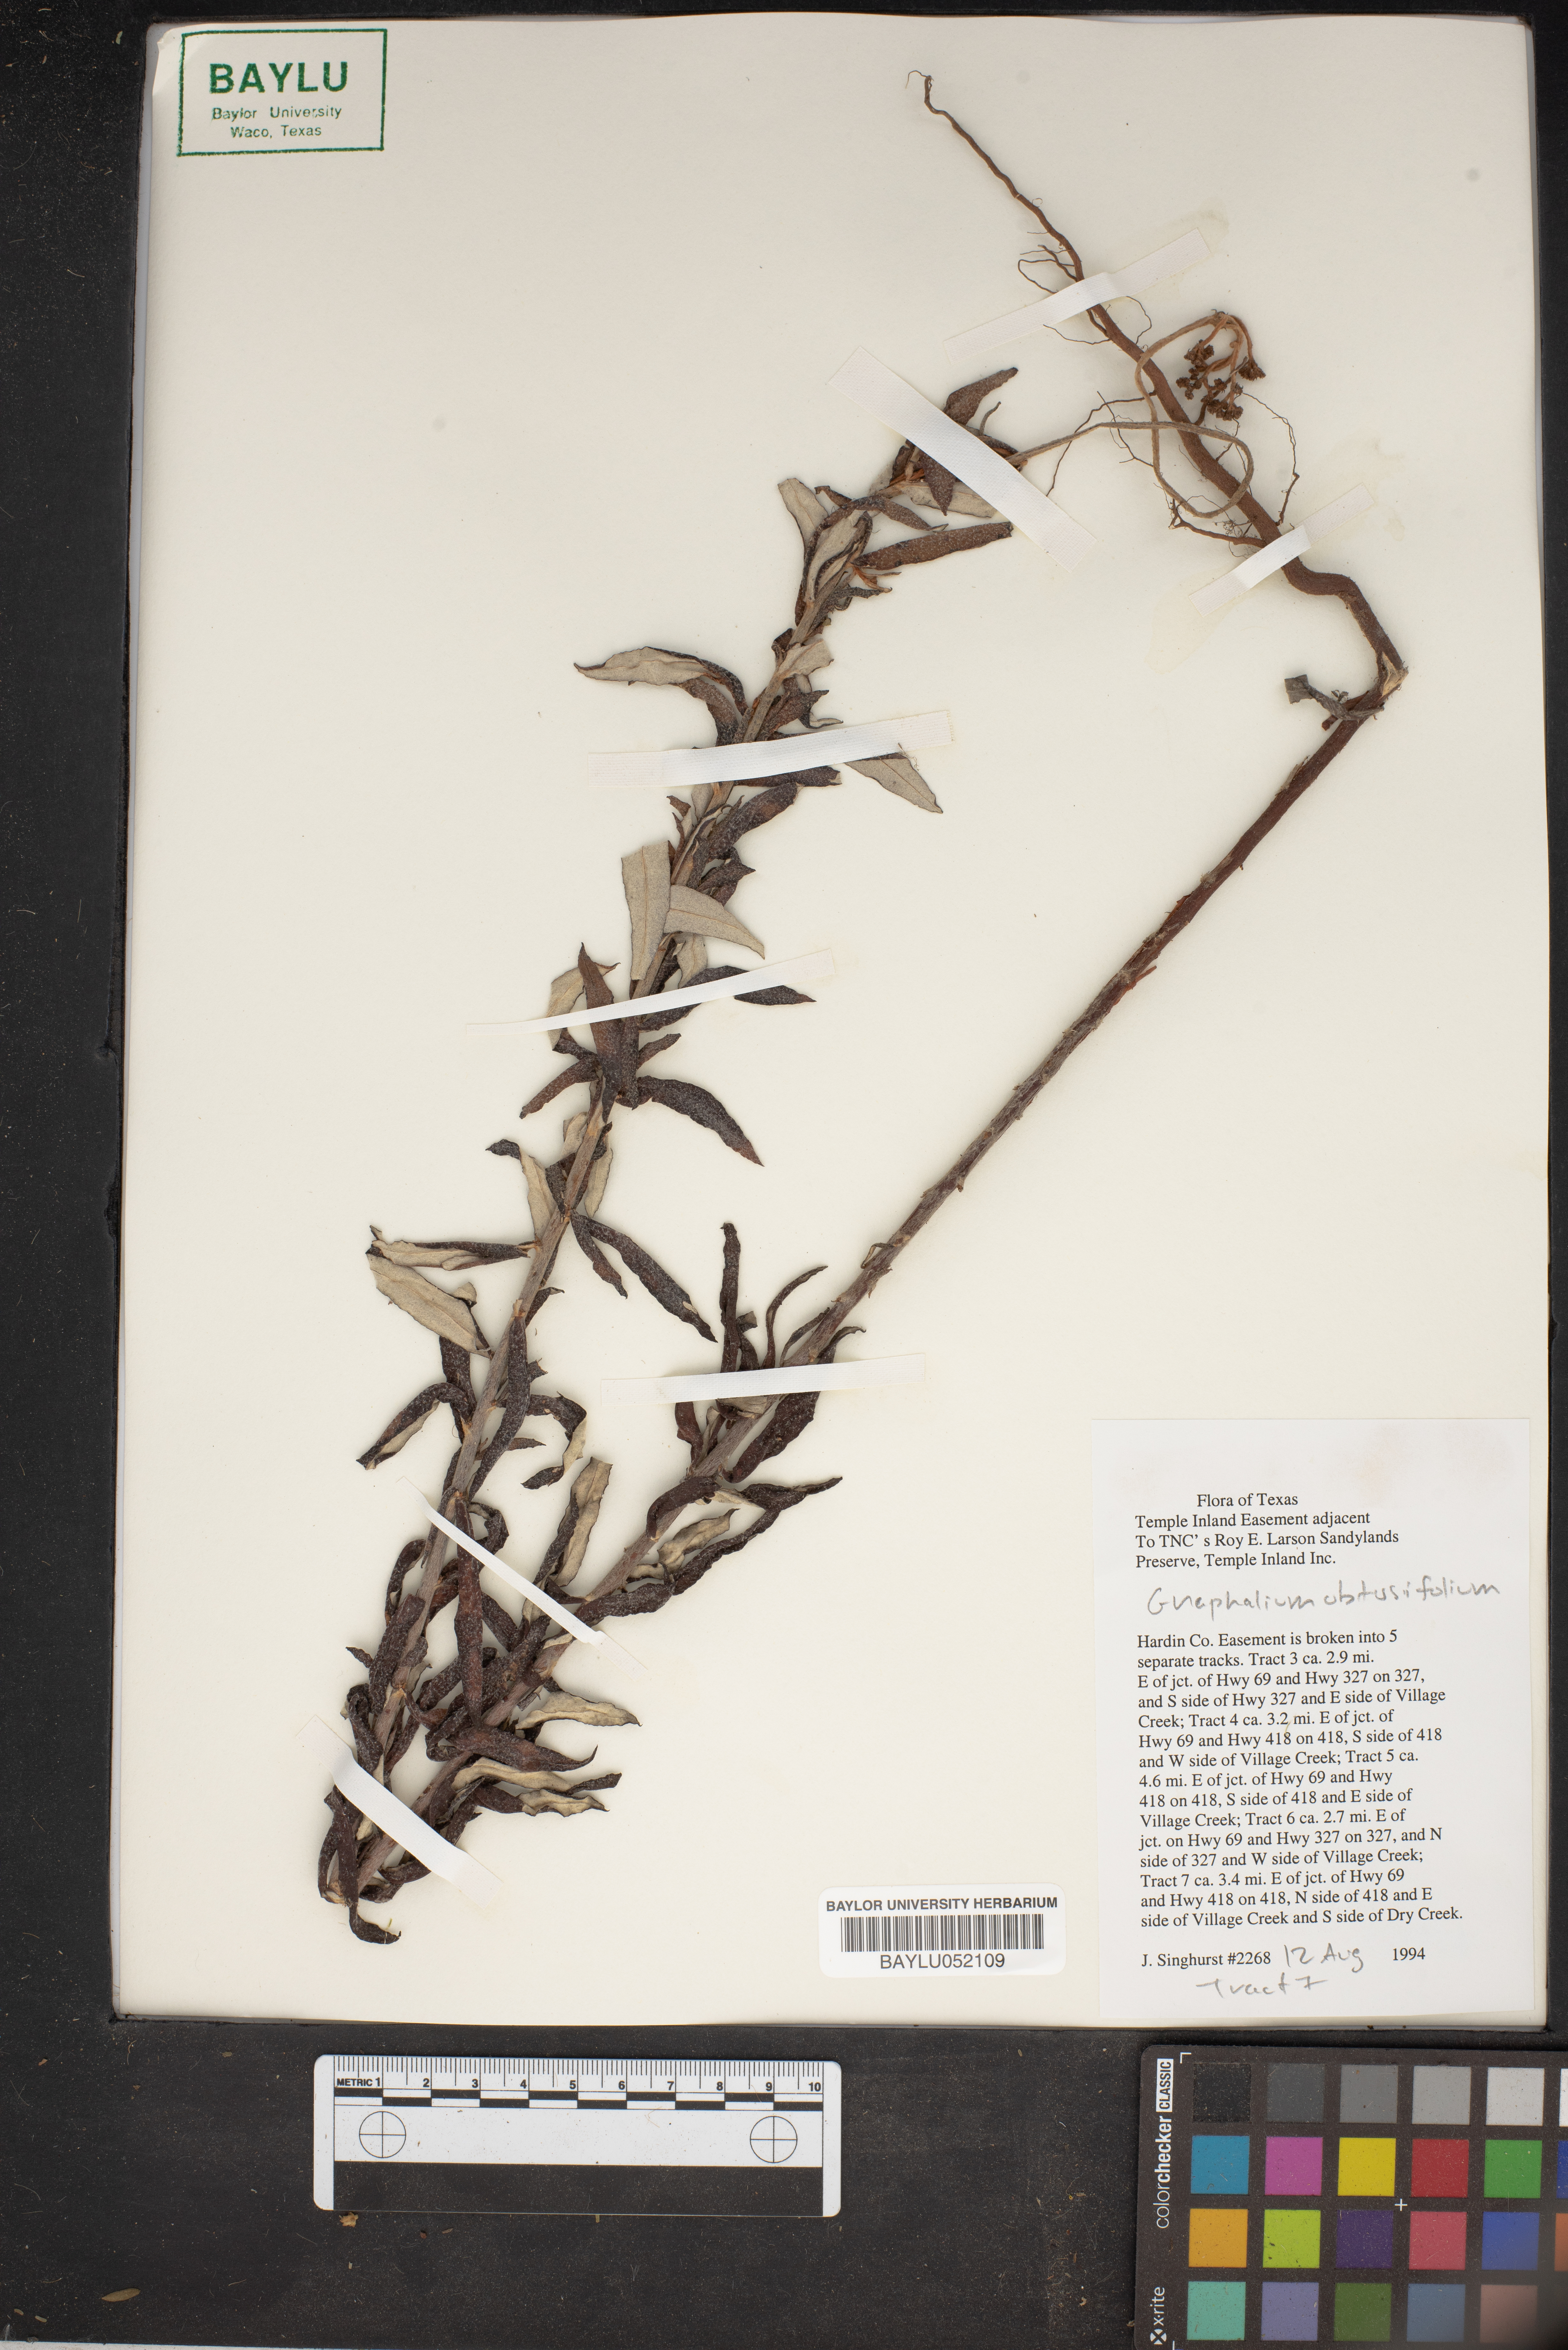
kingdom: Plantae
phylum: Tracheophyta
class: Magnoliopsida
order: Asterales
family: Asteraceae
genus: Pseudognaphalium
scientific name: Pseudognaphalium obtusifolium
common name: Eastern rabbit-tobacco
